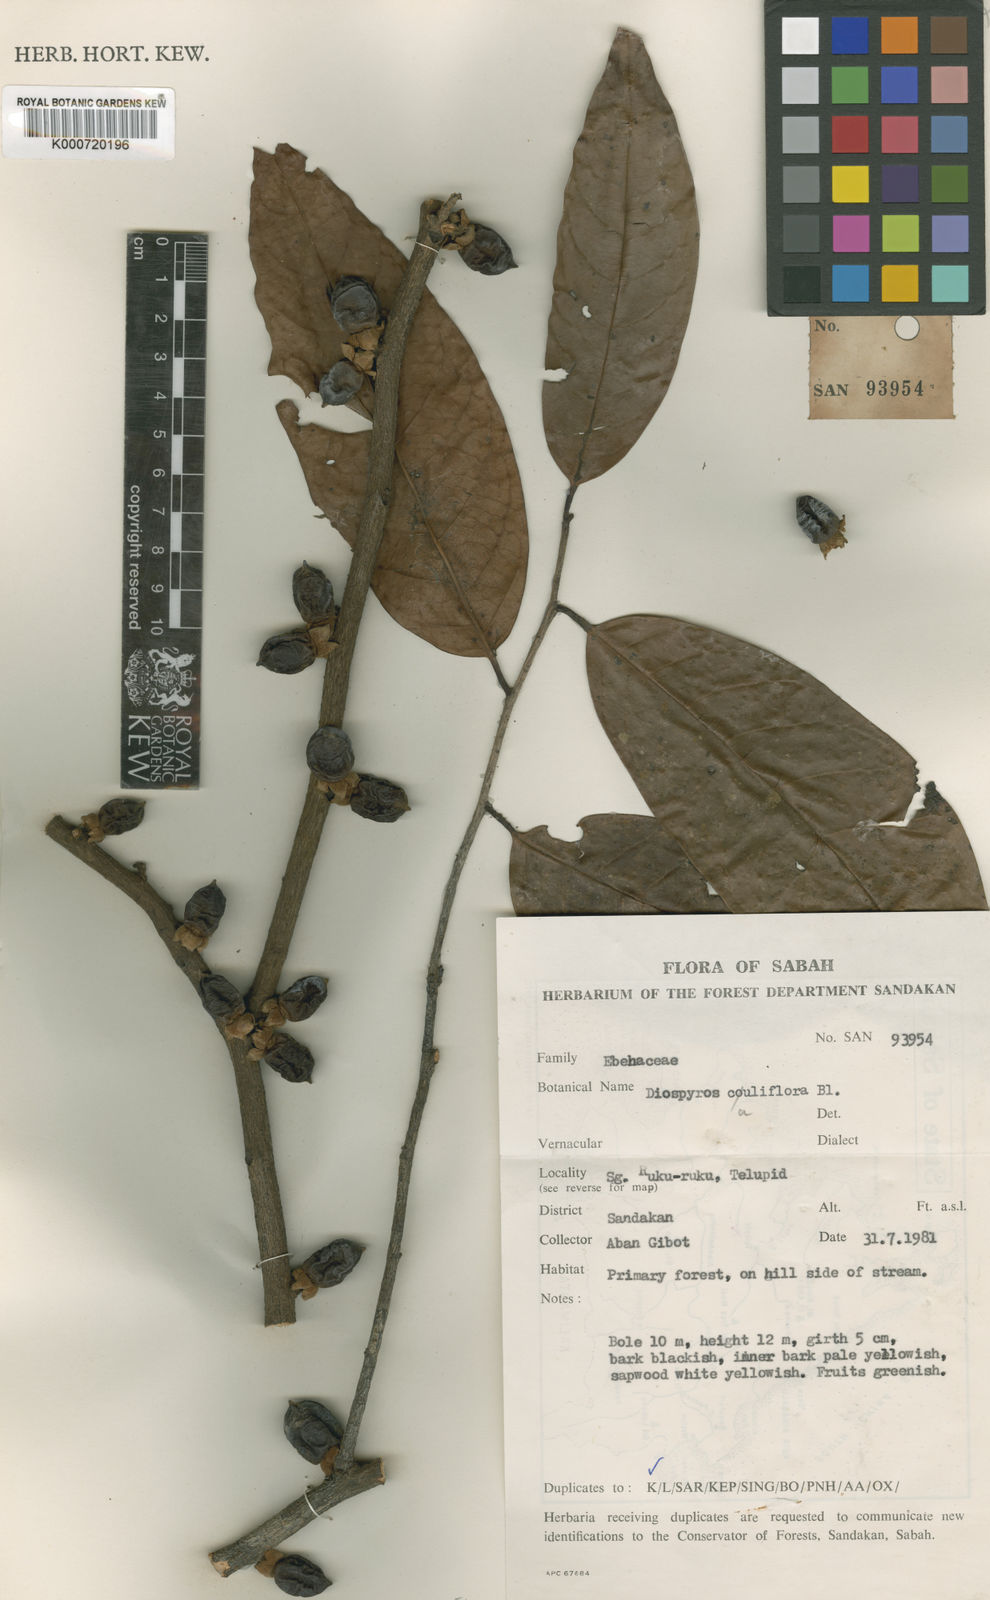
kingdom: Plantae
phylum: Tracheophyta
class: Magnoliopsida
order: Ericales
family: Ebenaceae
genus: Diospyros
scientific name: Diospyros cauliflora
